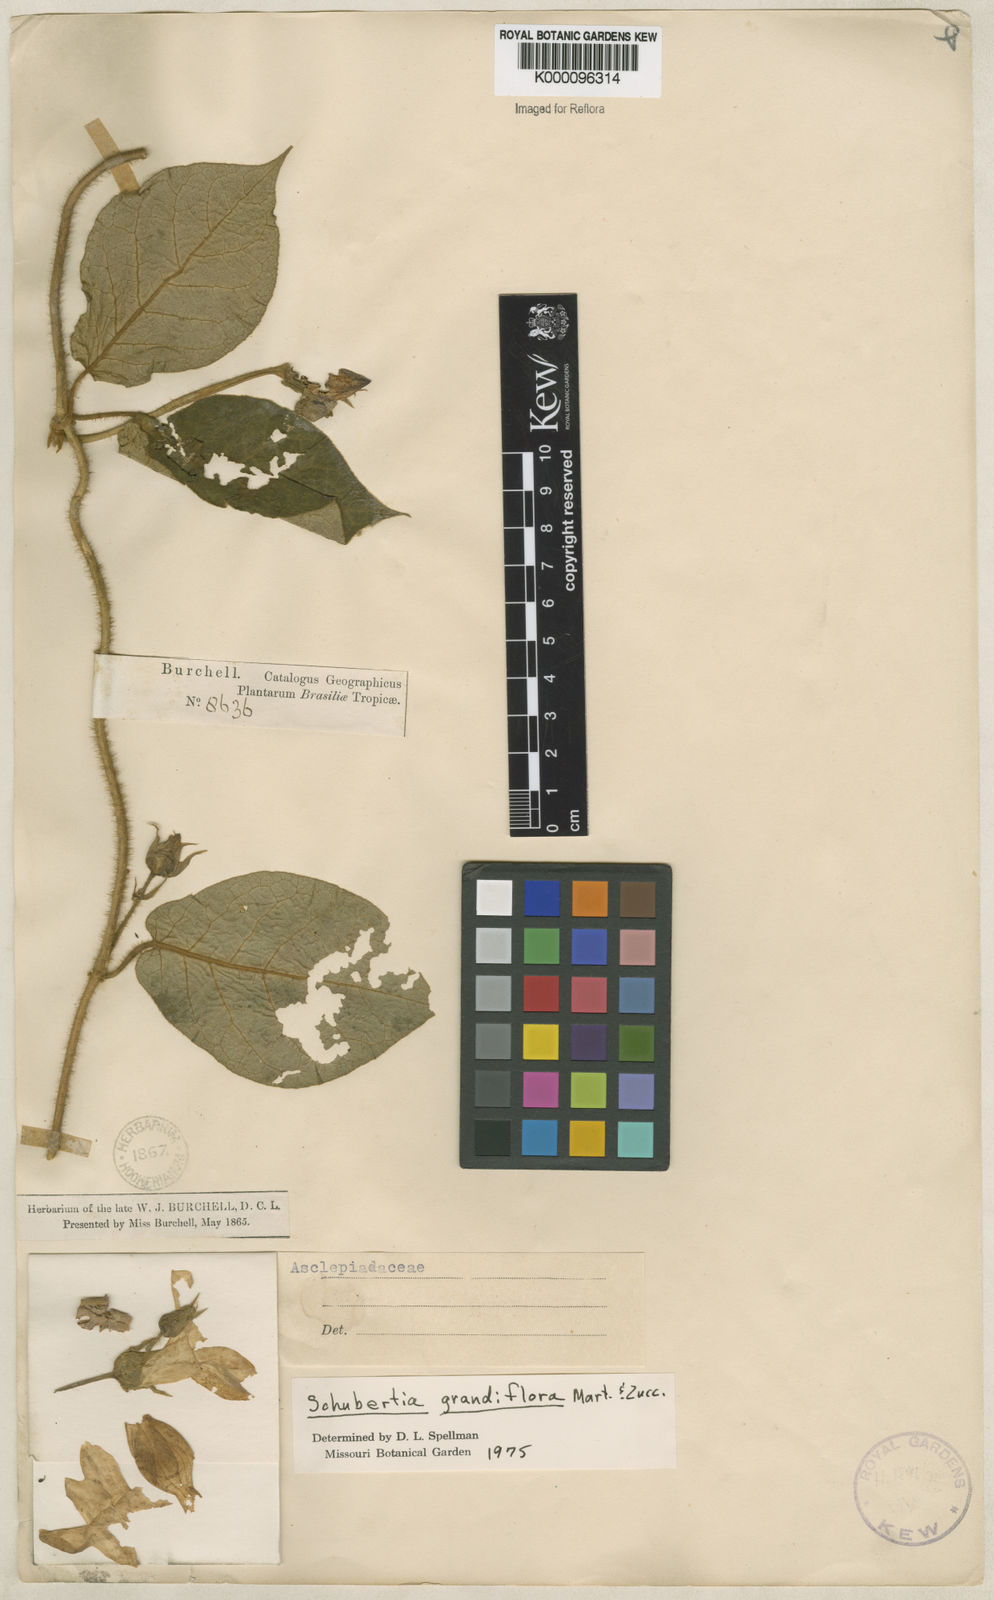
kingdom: Plantae
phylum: Tracheophyta
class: Magnoliopsida
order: Gentianales
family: Apocynaceae
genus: Macroscepis
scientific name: Macroscepis grandiflora
